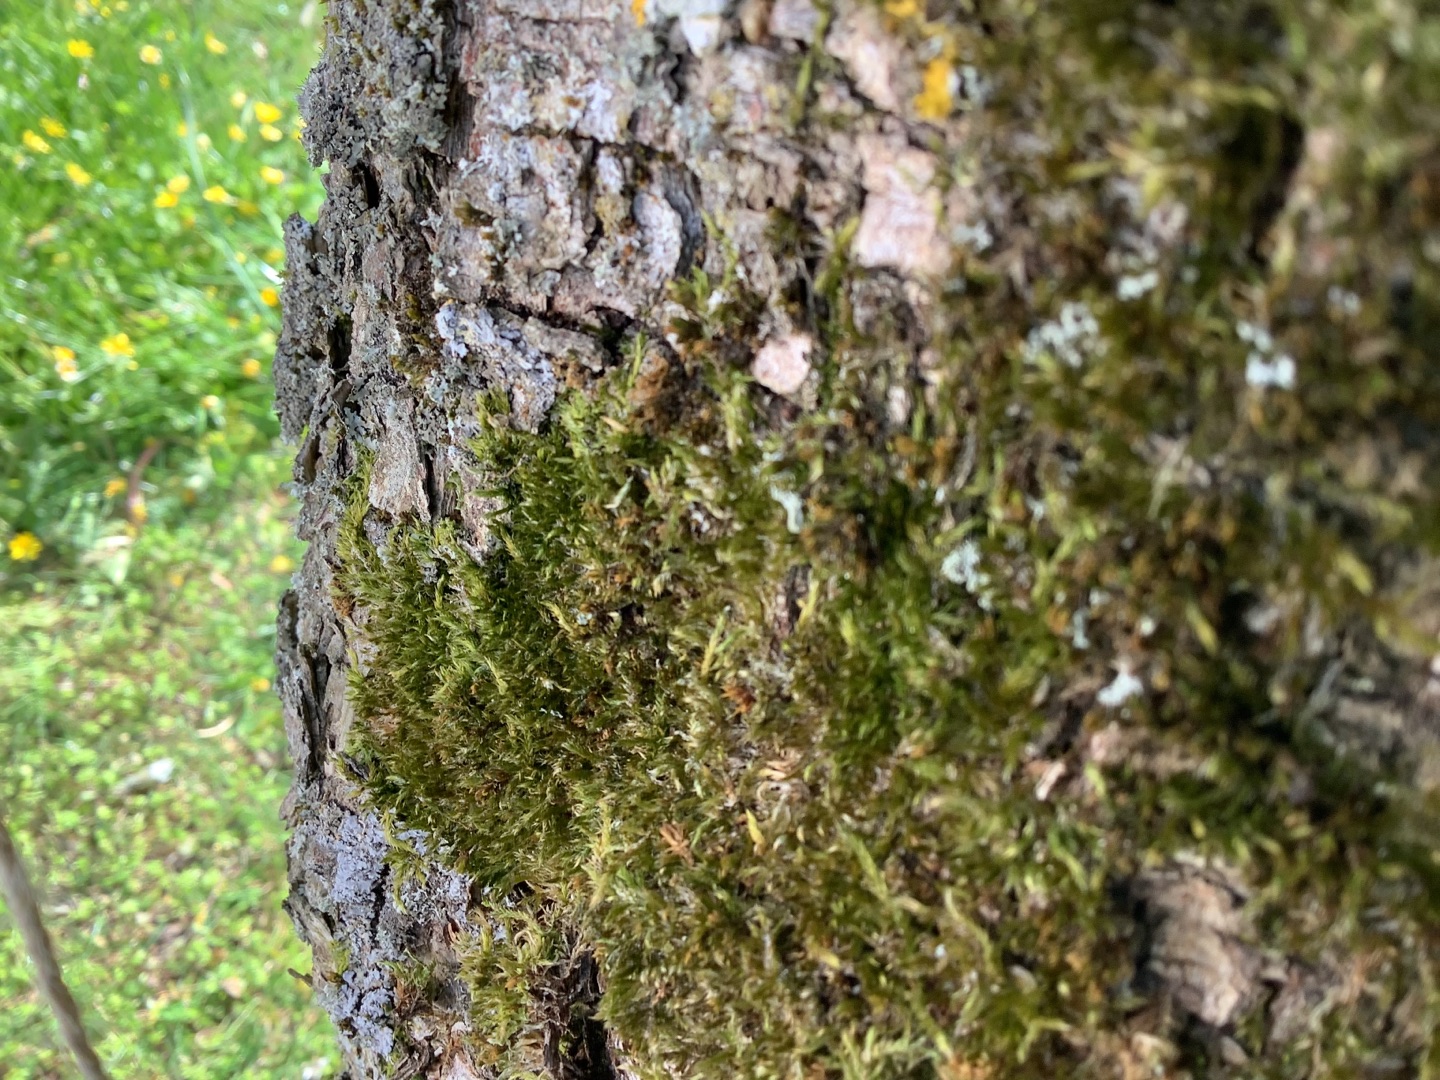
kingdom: Plantae
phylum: Bryophyta
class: Bryopsida
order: Hypnales
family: Hypnaceae
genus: Hypnum
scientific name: Hypnum
